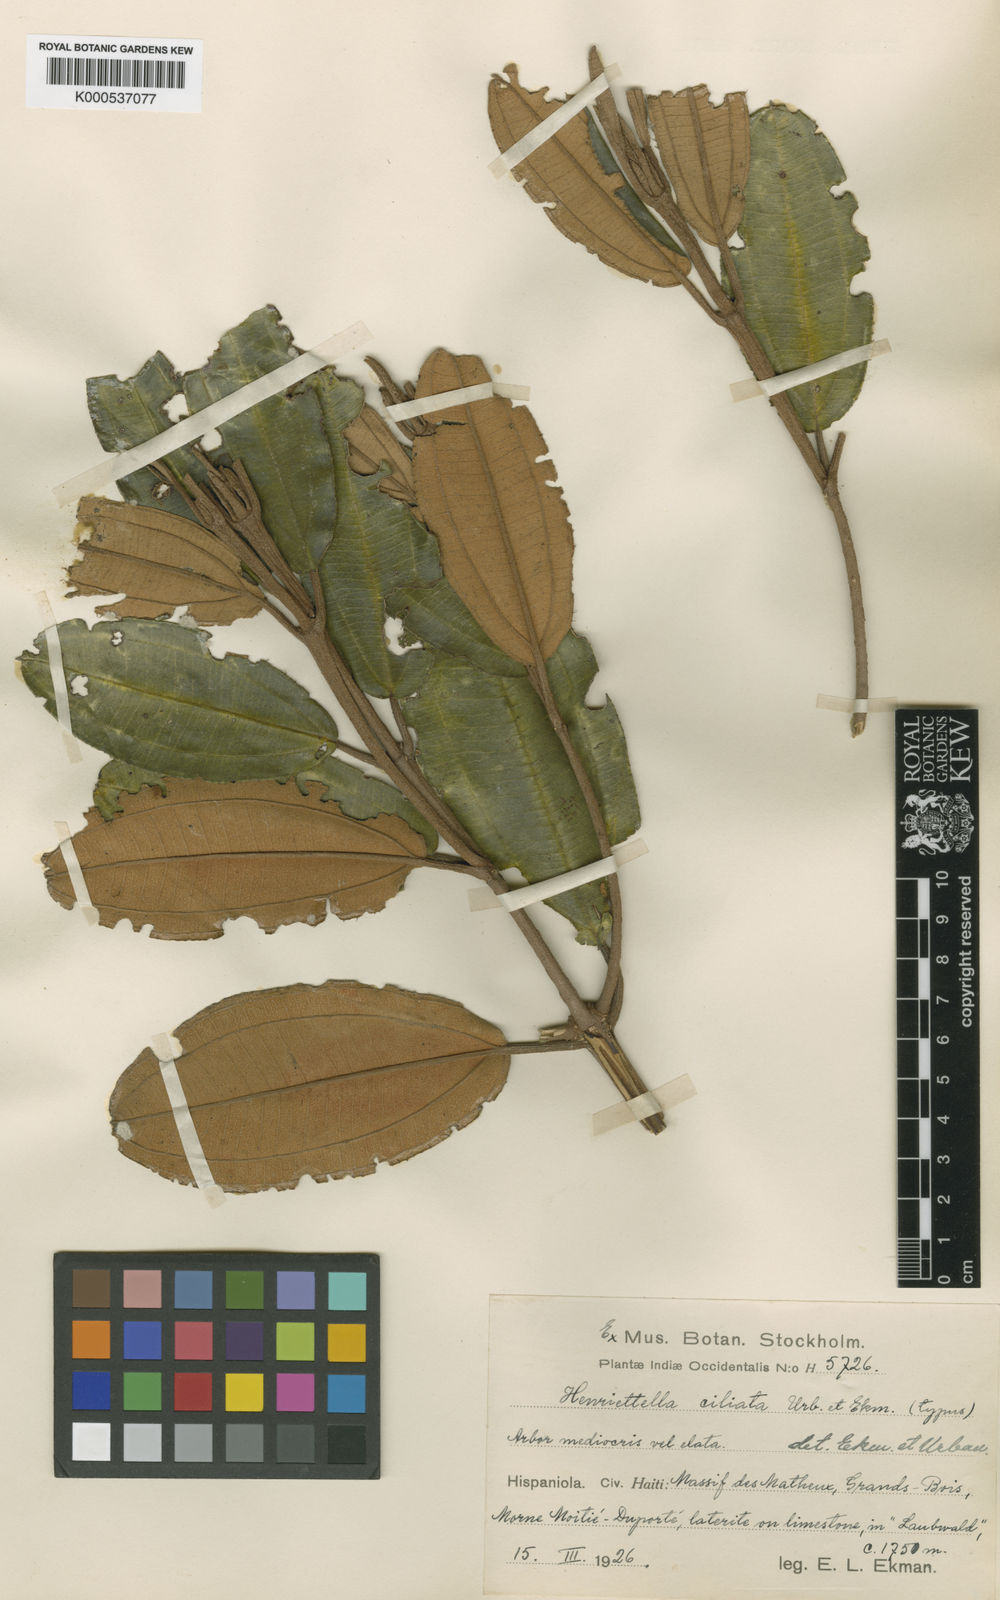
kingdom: Plantae
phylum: Tracheophyta
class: Magnoliopsida
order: Myrtales
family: Melastomataceae
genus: Henriettea
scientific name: Henriettea ciliata
